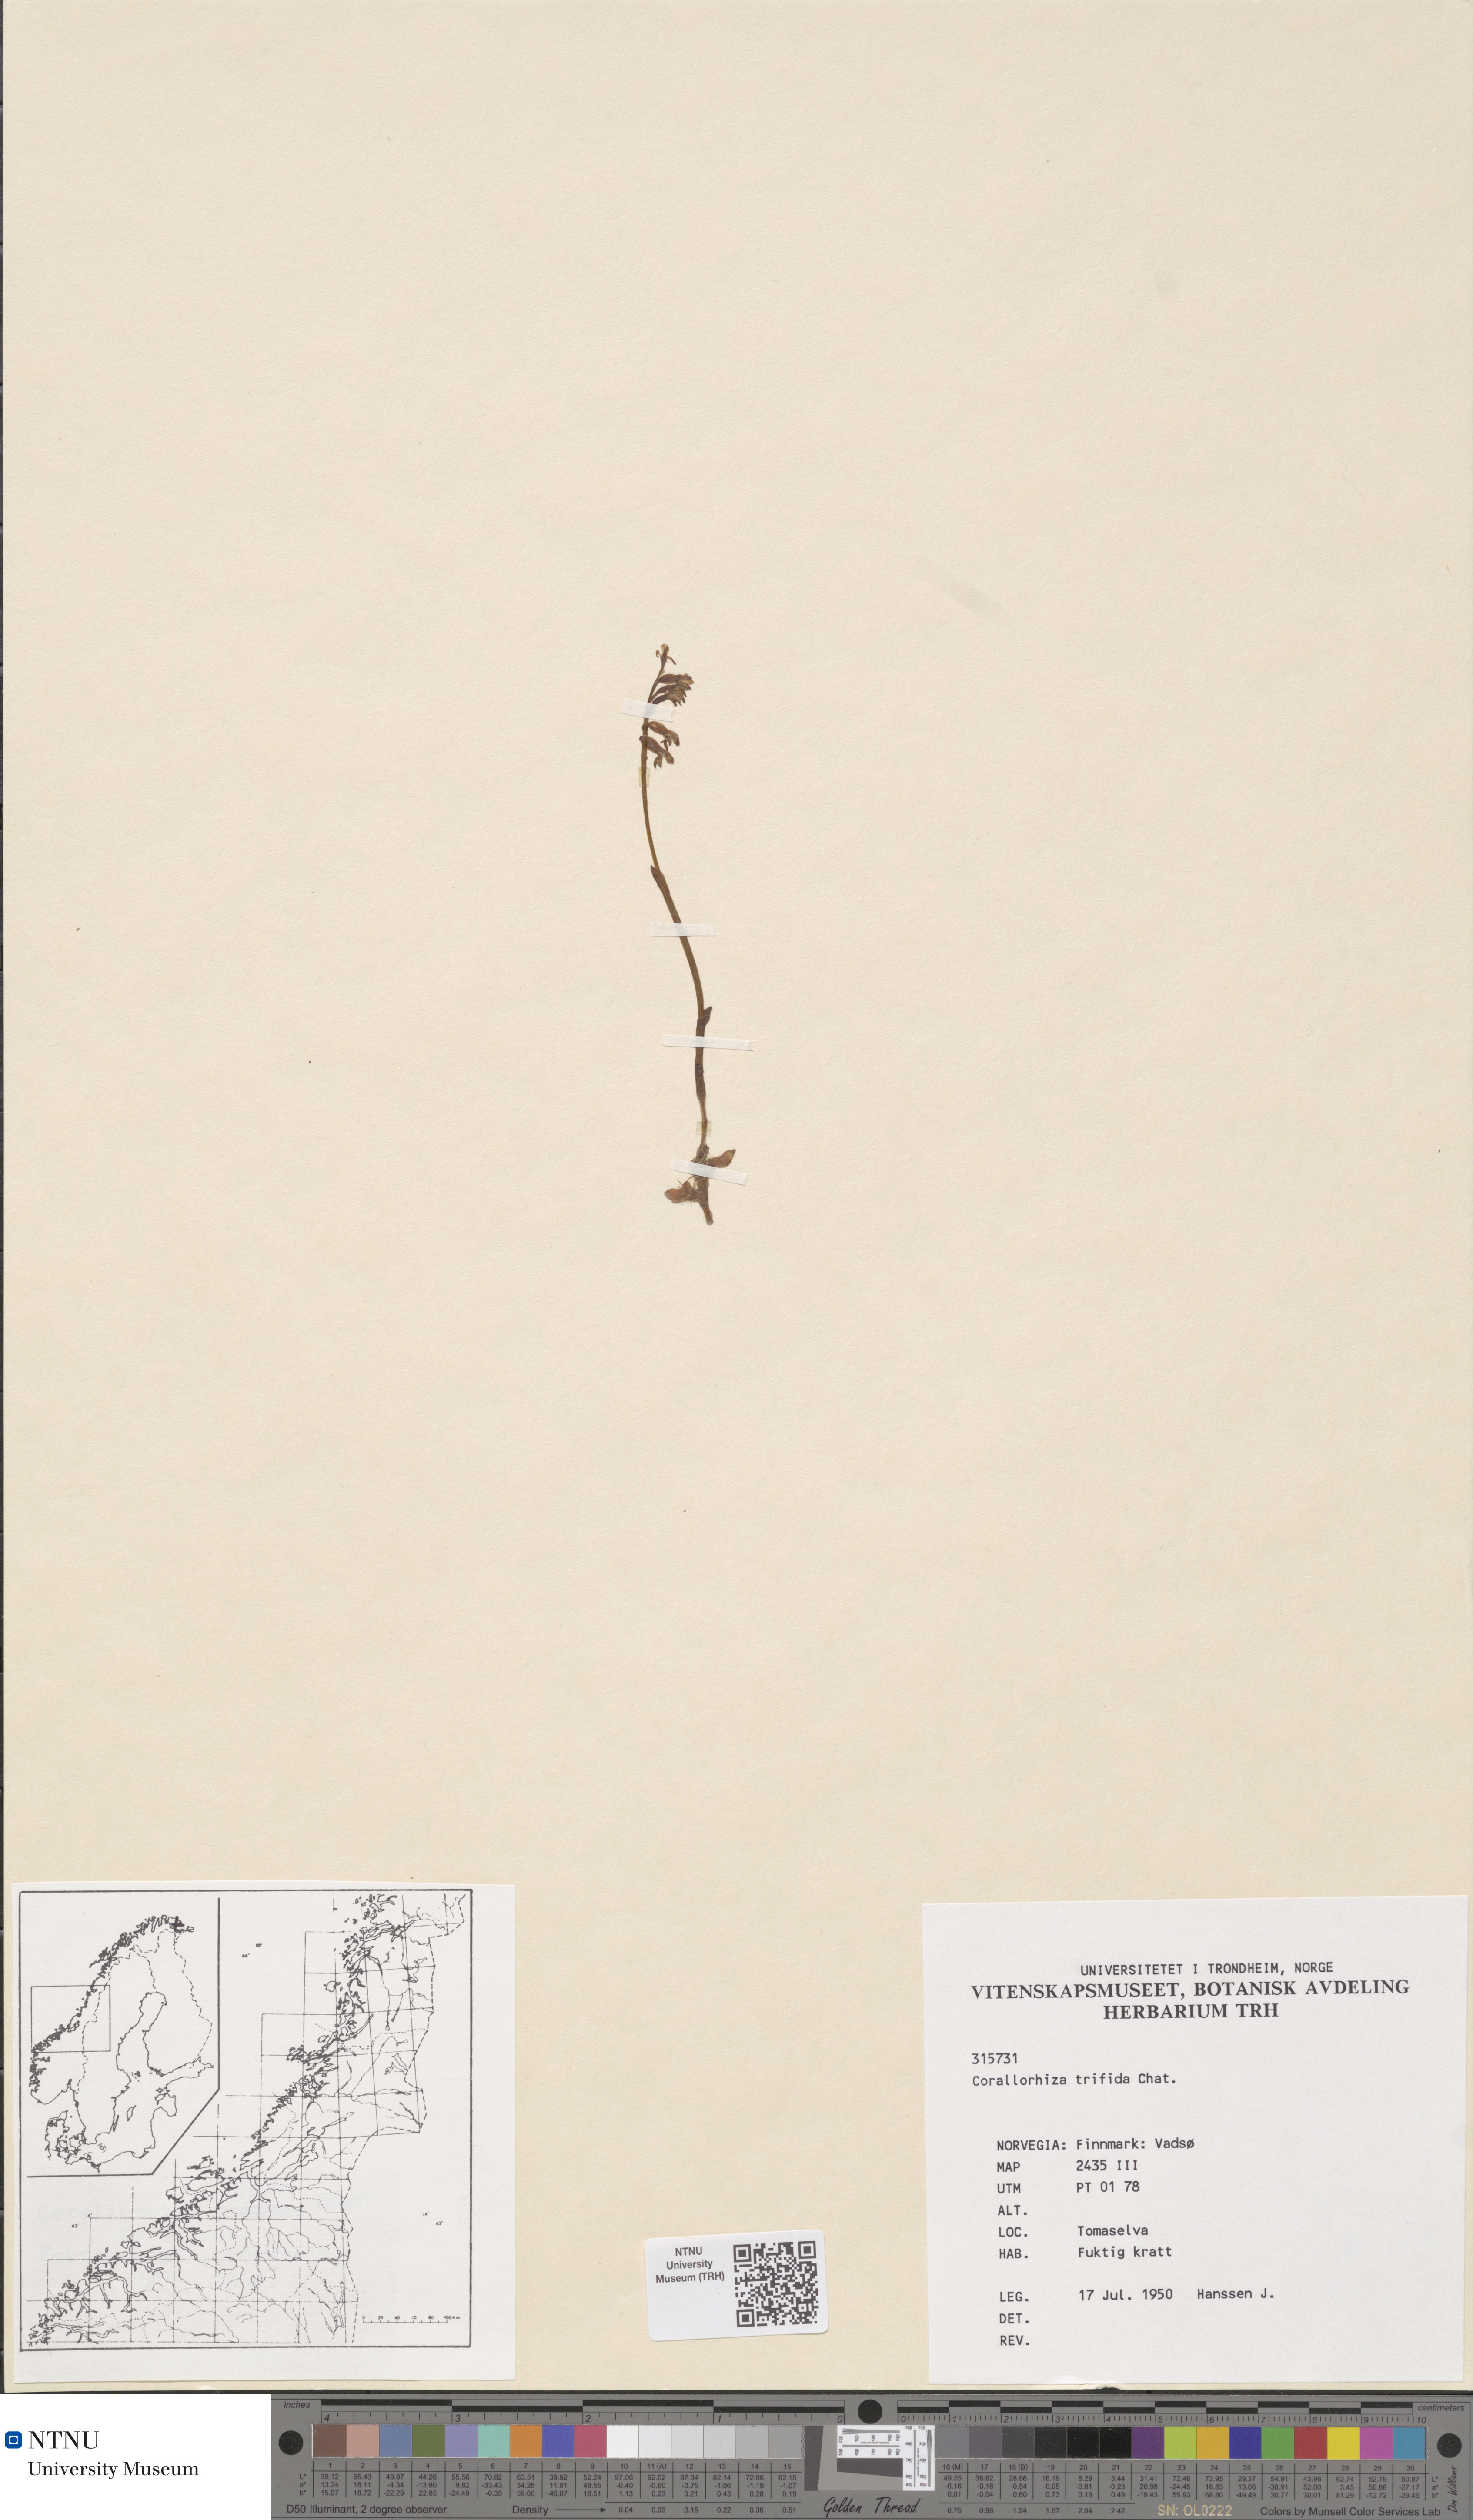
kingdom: Plantae
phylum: Tracheophyta
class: Liliopsida
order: Asparagales
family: Orchidaceae
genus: Corallorhiza
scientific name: Corallorhiza trifida
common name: Yellow coralroot
